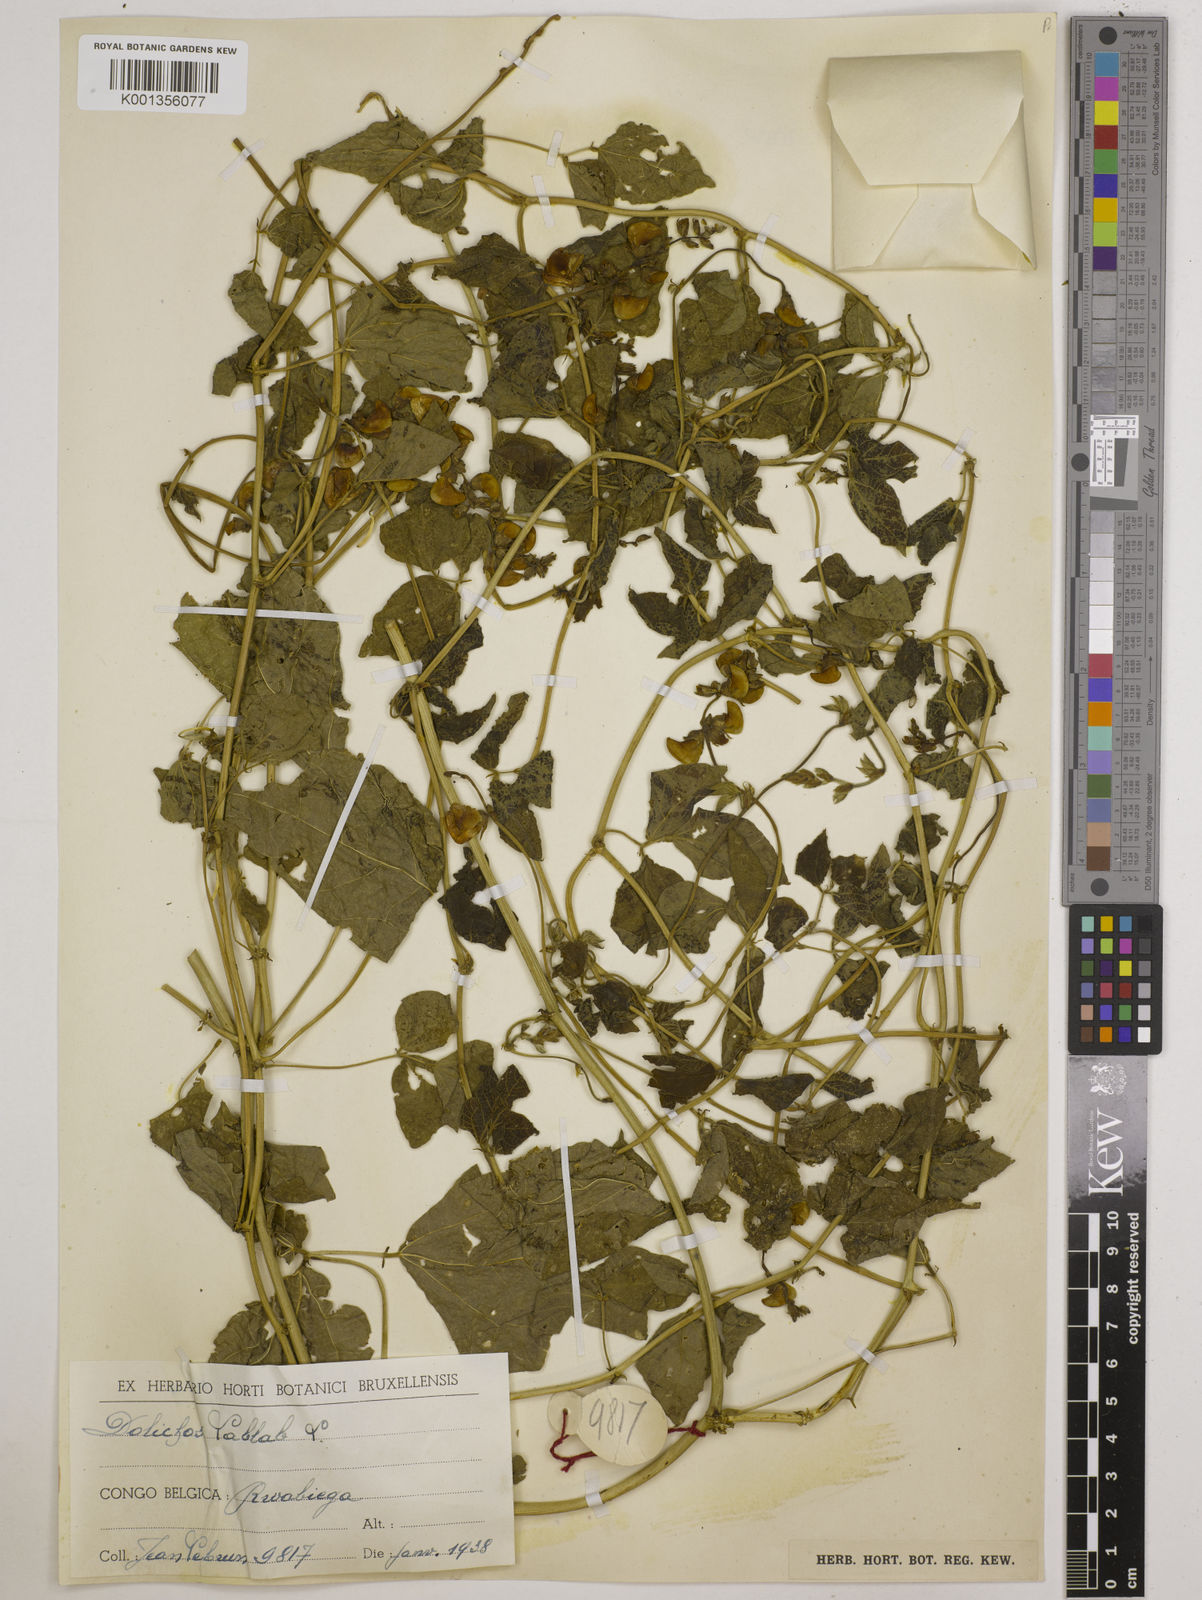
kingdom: Plantae
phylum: Tracheophyta
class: Magnoliopsida
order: Fabales
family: Fabaceae
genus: Lablab
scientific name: Lablab purpureus
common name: Lablab-bean
